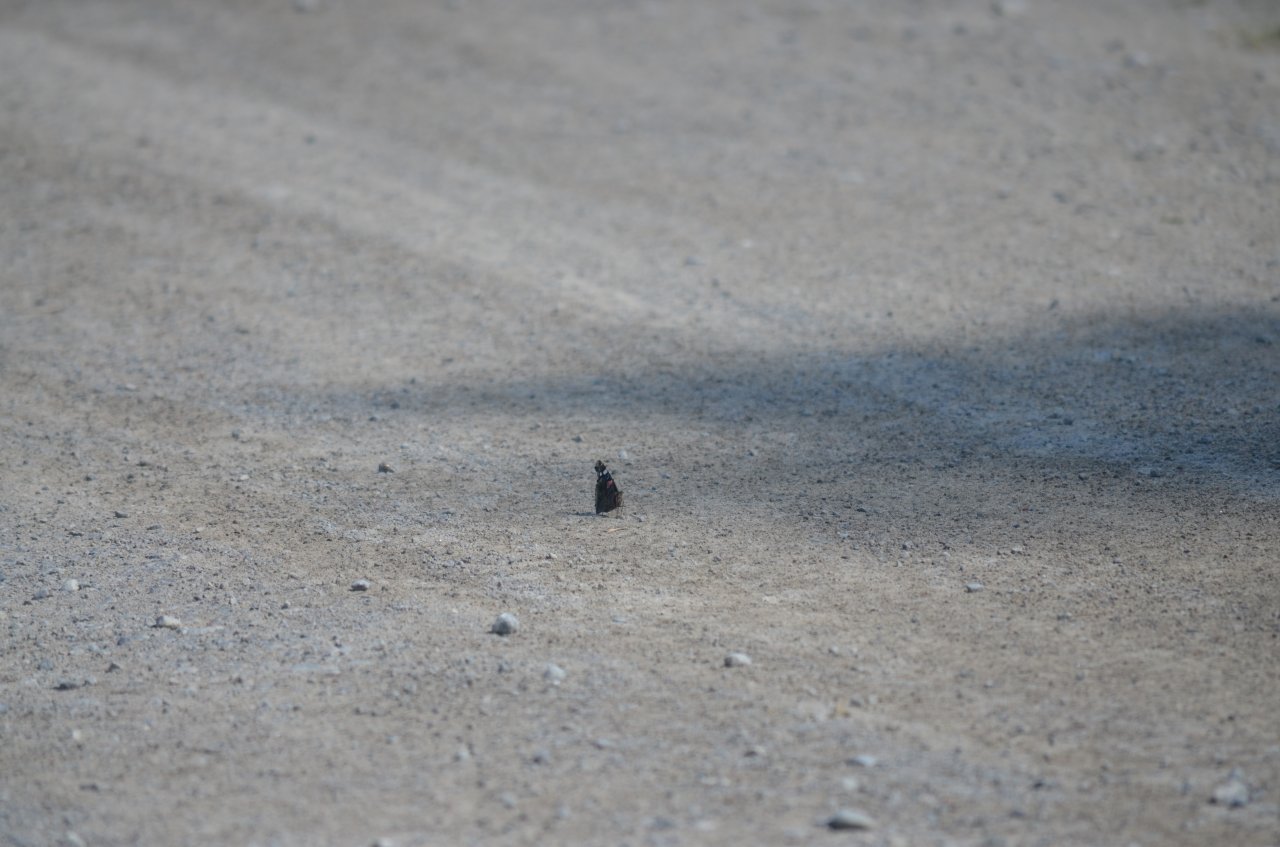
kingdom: Animalia
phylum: Arthropoda
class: Insecta
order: Lepidoptera
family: Nymphalidae
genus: Vanessa
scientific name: Vanessa atalanta
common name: Red Admiral
